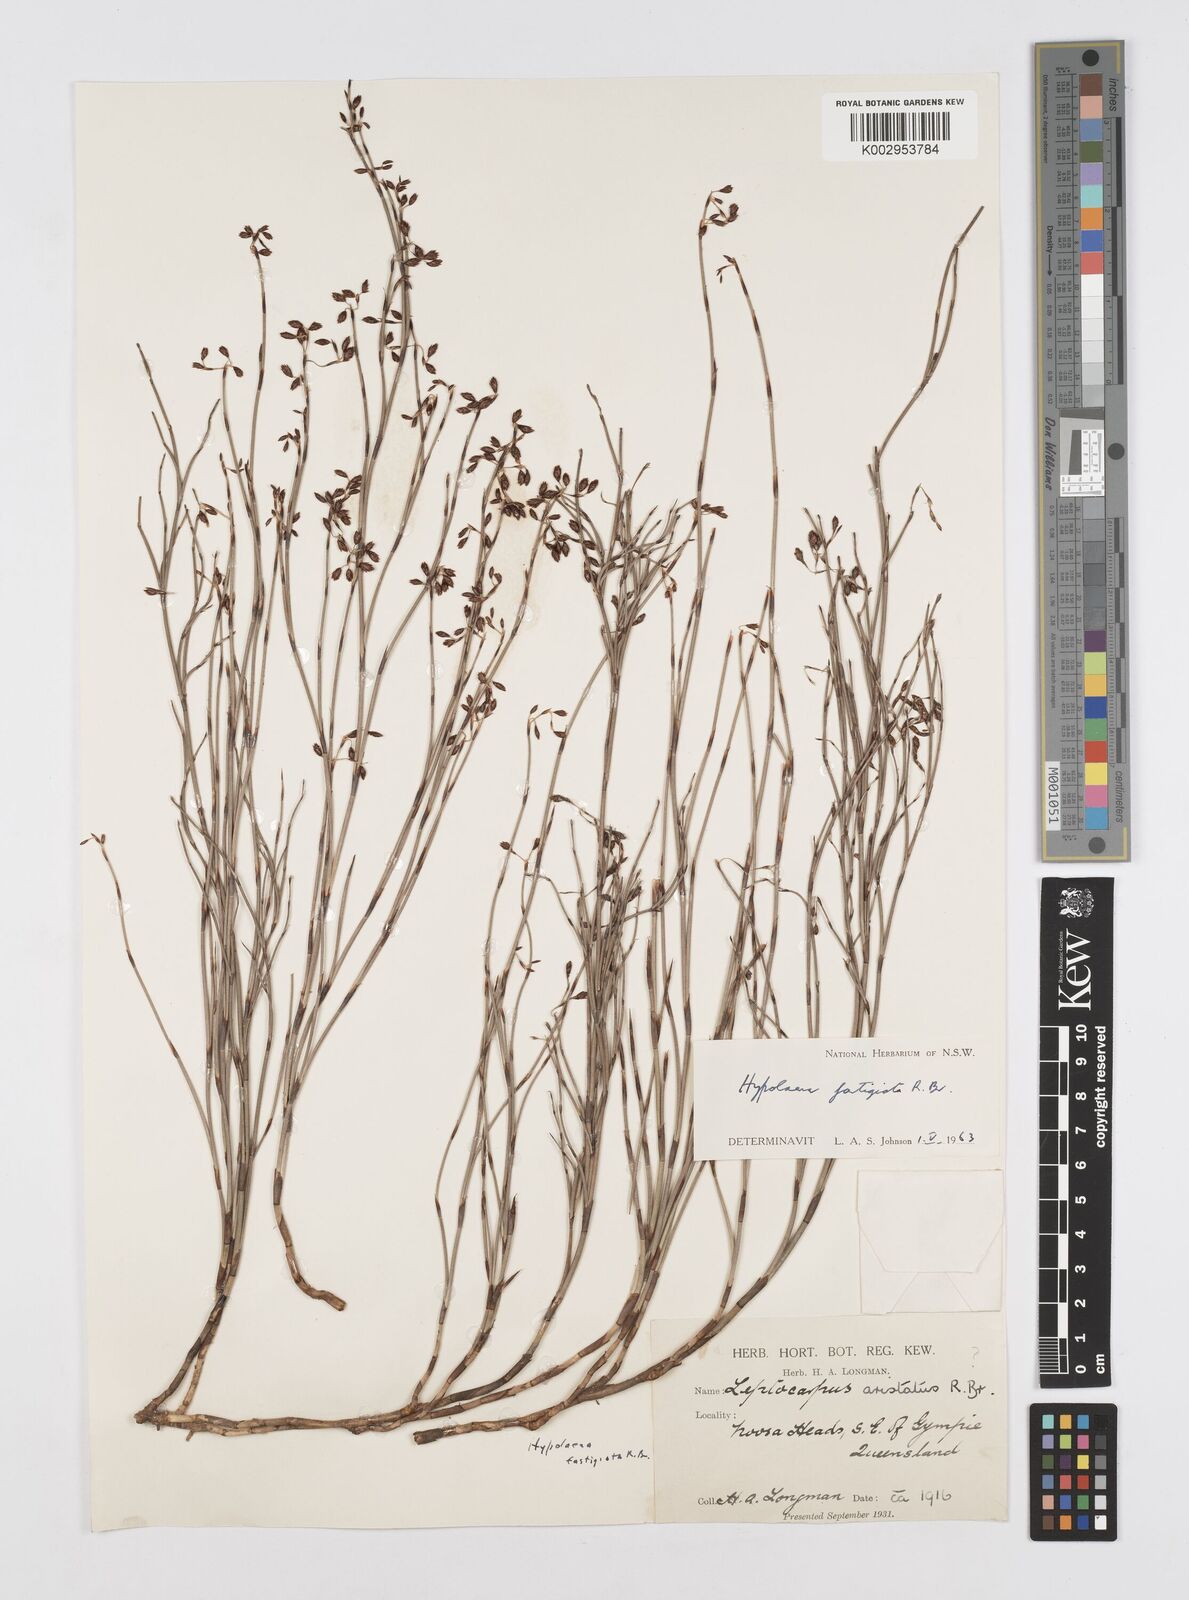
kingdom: Plantae
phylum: Tracheophyta
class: Liliopsida
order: Poales
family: Restionaceae
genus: Hypolaena
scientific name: Hypolaena fastigiata
